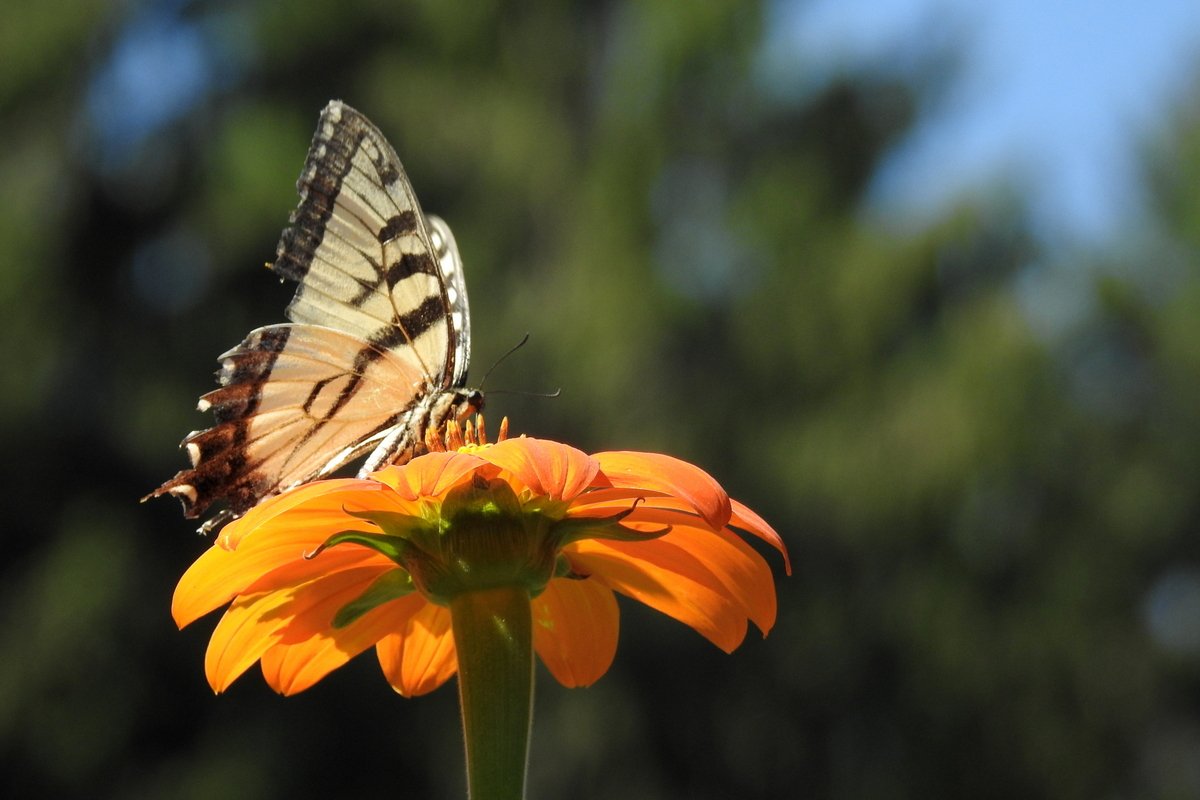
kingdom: Animalia
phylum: Arthropoda
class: Insecta
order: Lepidoptera
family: Papilionidae
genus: Pterourus
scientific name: Pterourus glaucus
